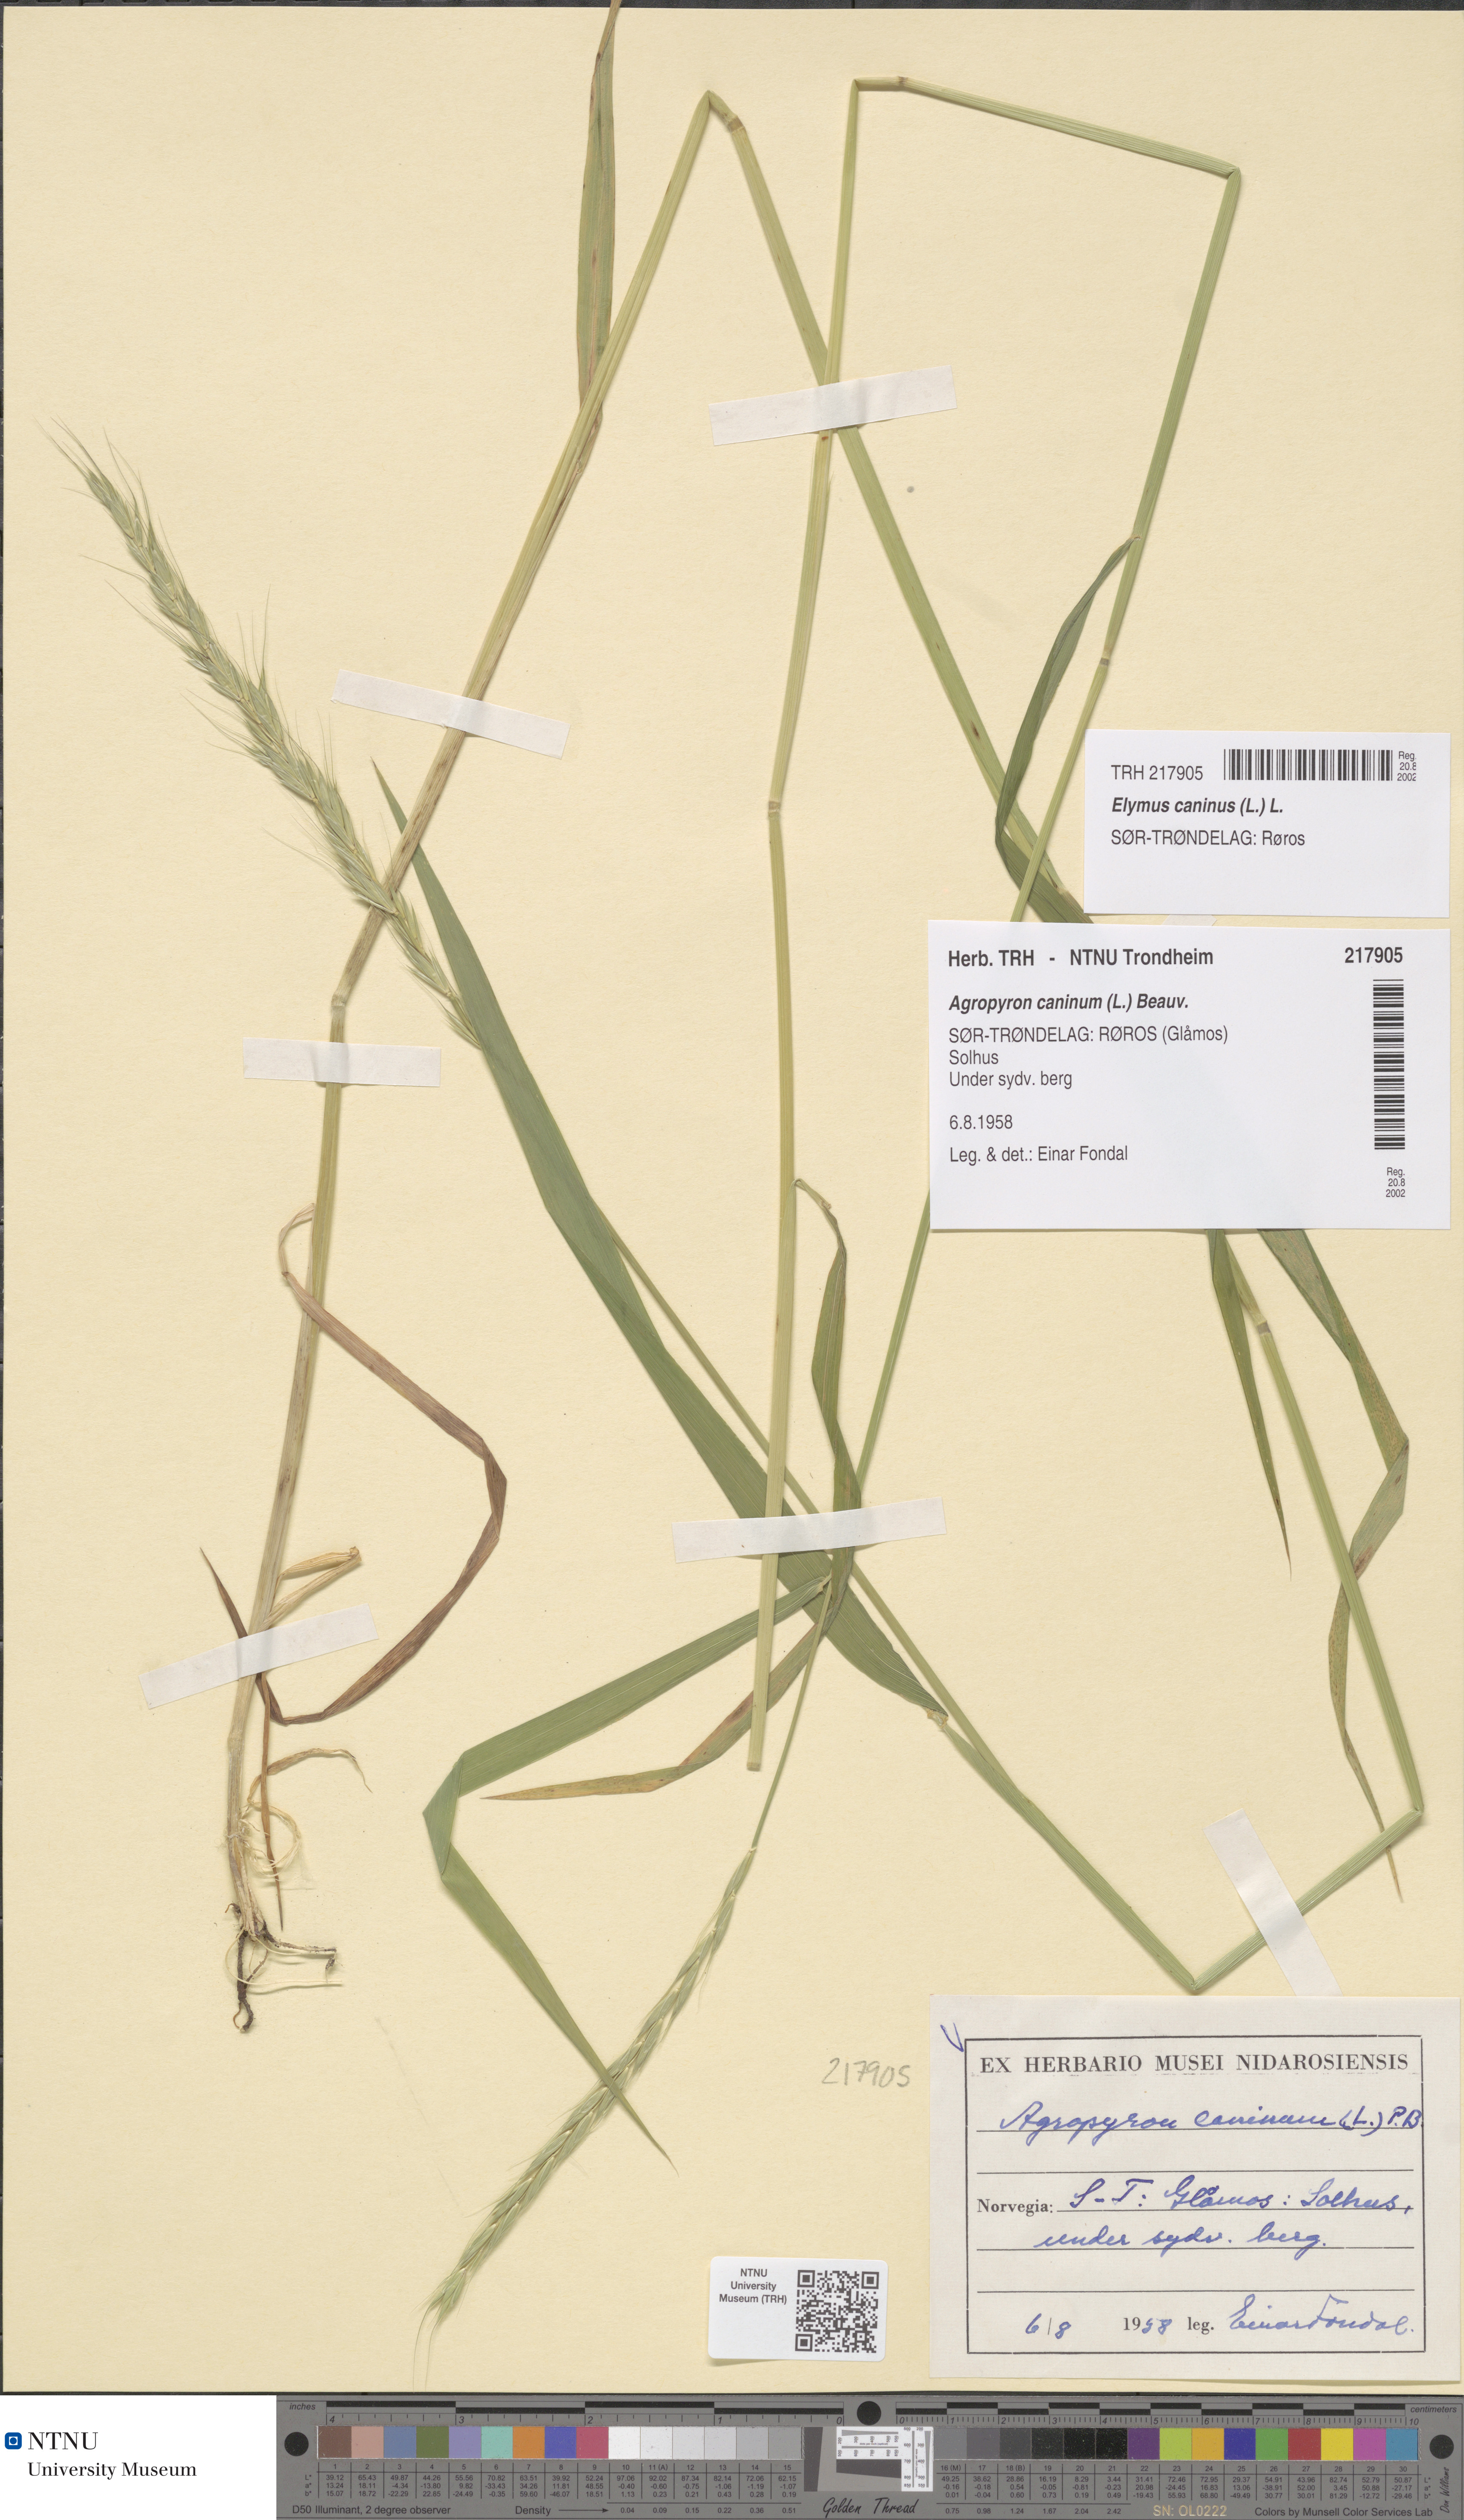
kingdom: Plantae
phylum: Tracheophyta
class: Liliopsida
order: Poales
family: Poaceae
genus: Elymus
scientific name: Elymus caninus
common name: Bearded couch
